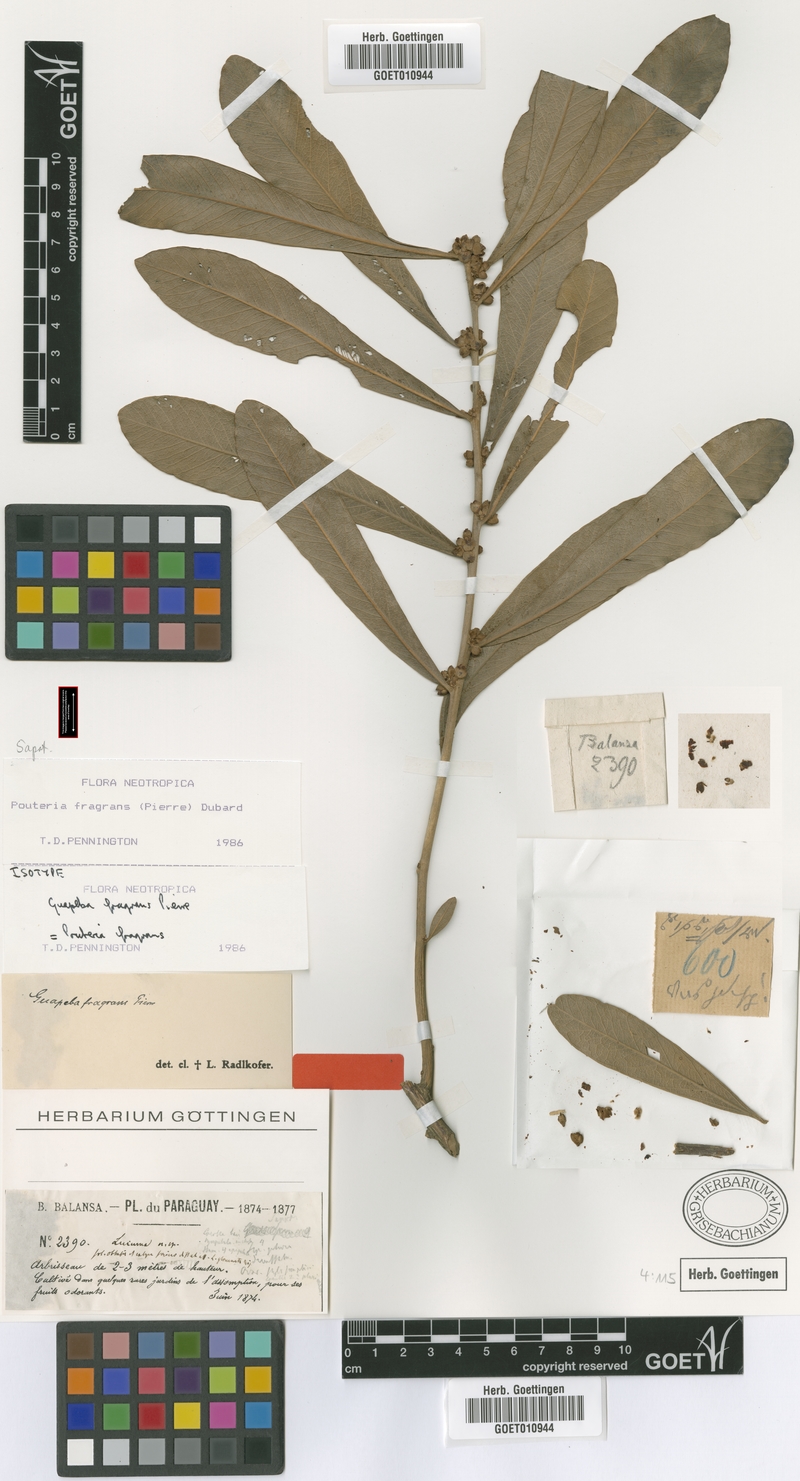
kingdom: Plantae
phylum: Tracheophyta
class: Magnoliopsida
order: Ericales
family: Sapotaceae
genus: Pouteria
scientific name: Pouteria fragrans
